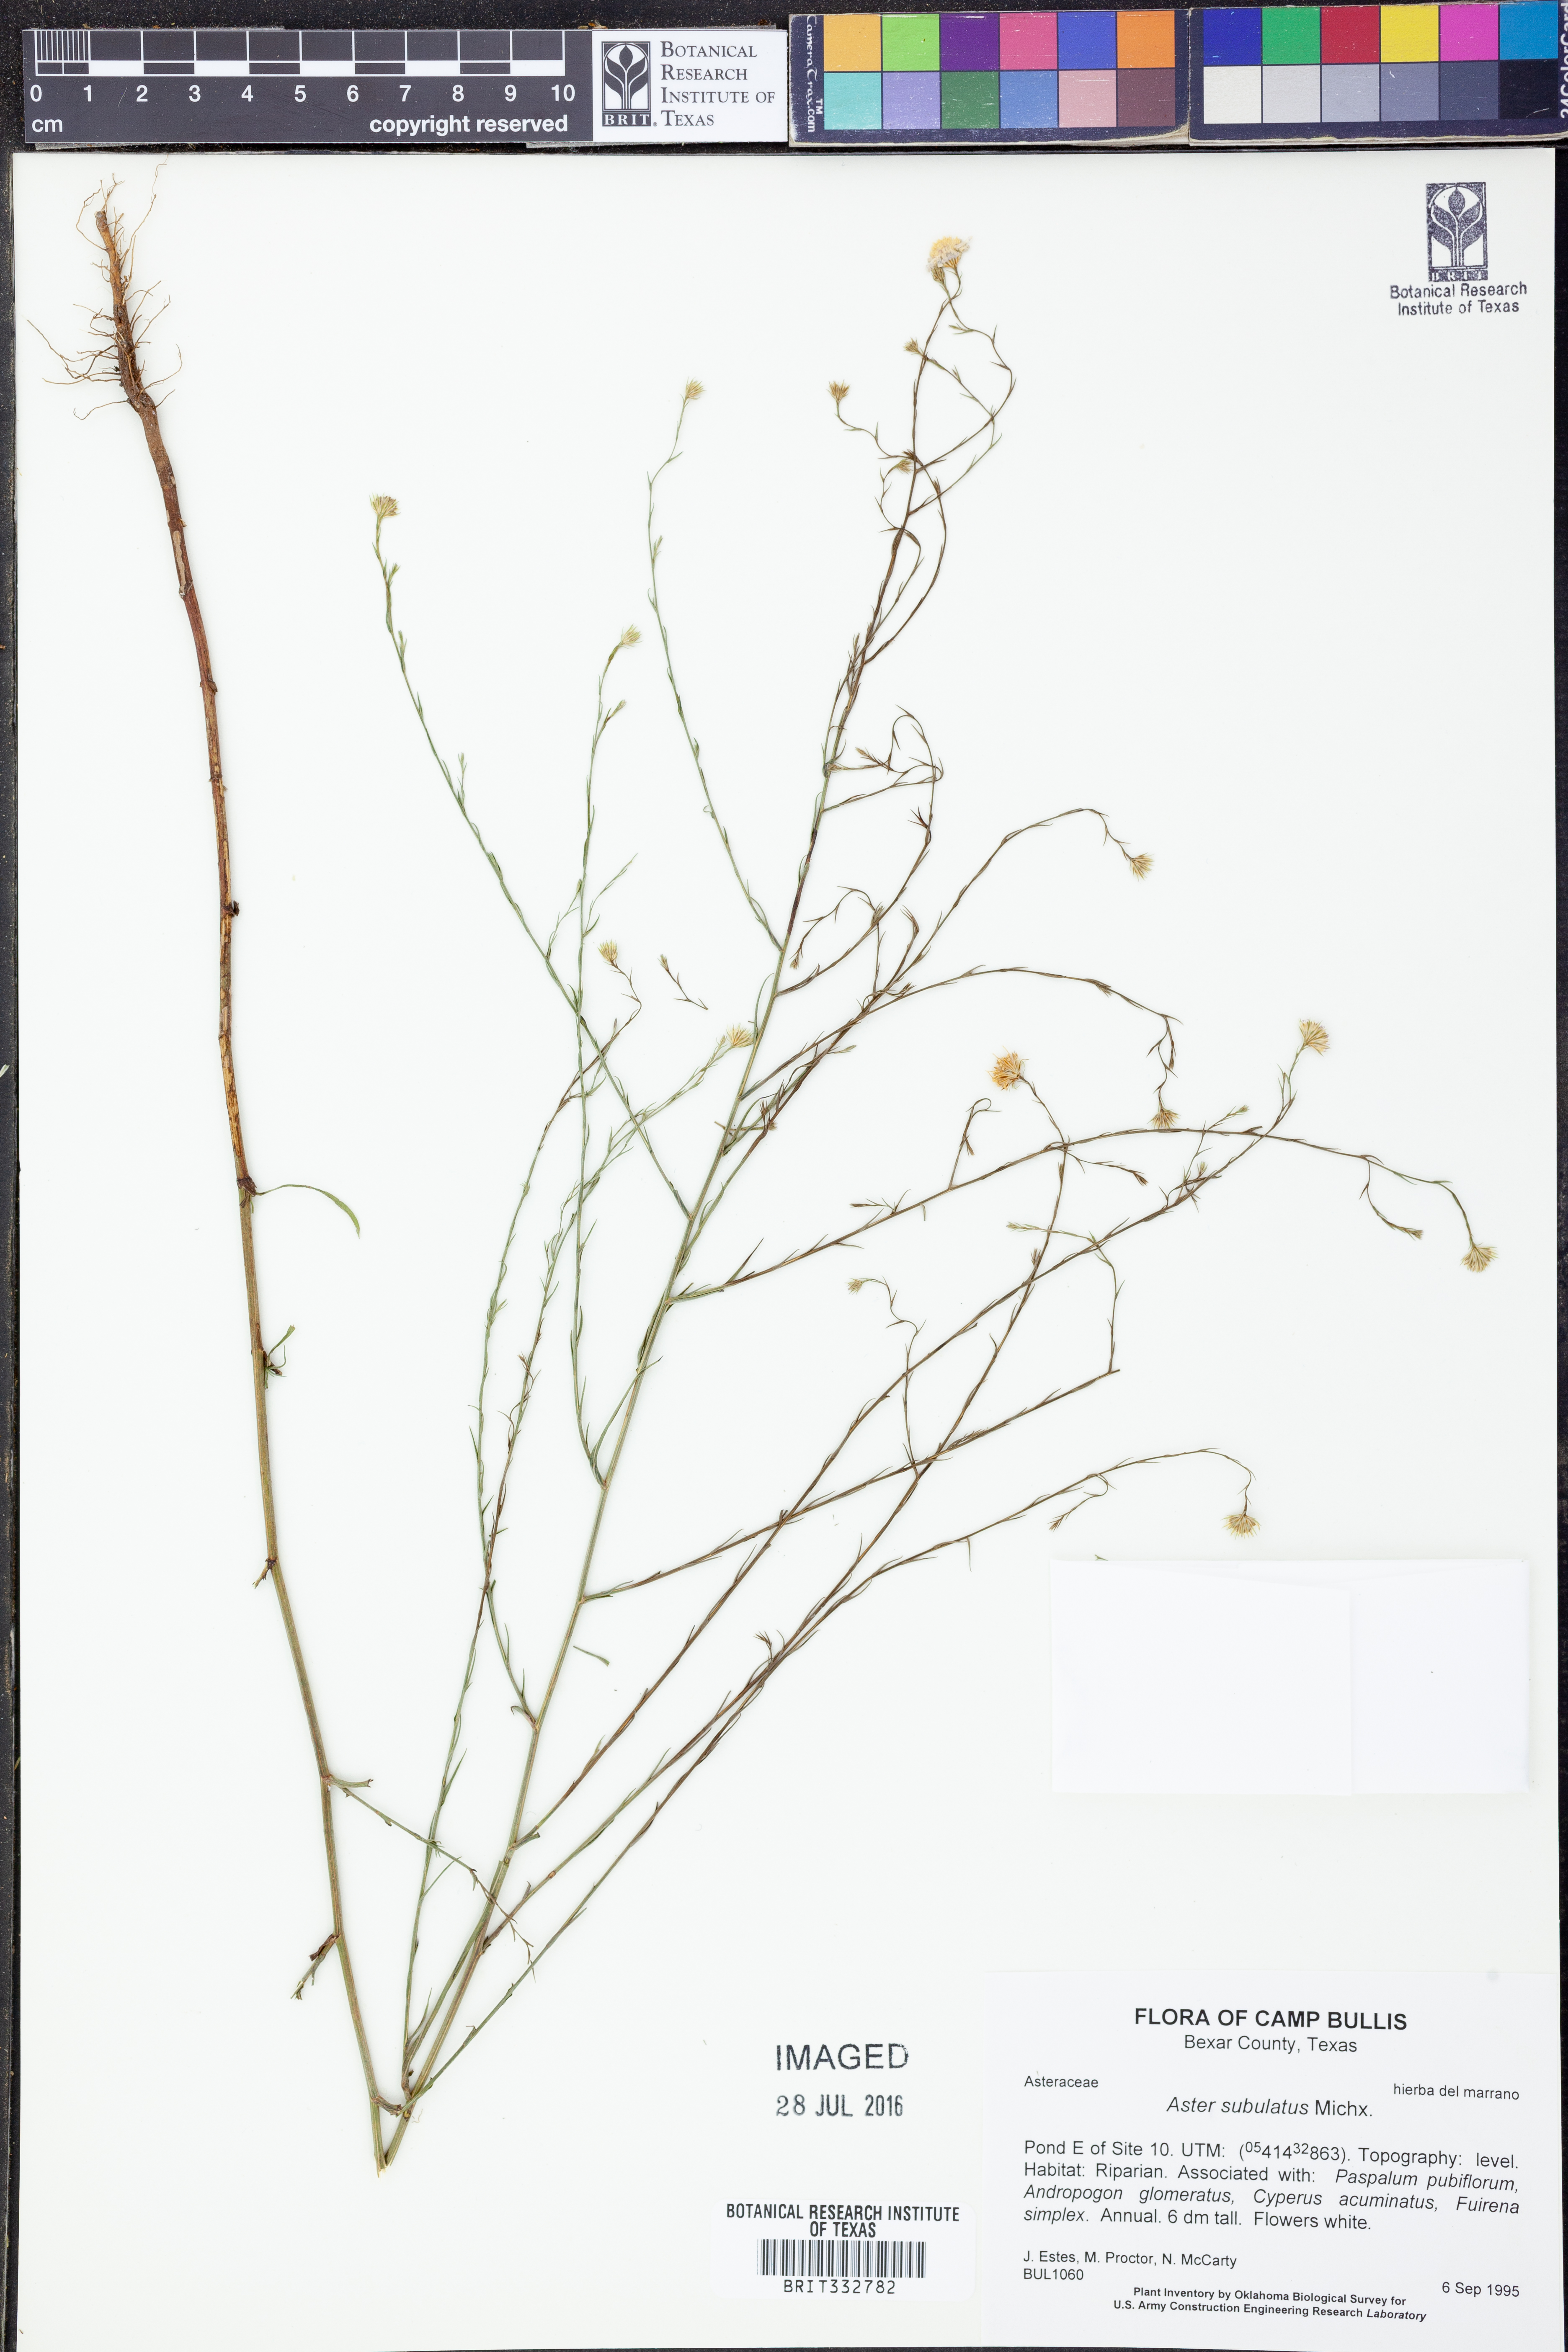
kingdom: Plantae
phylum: Tracheophyta
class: Magnoliopsida
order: Asterales
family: Asteraceae
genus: Symphyotrichum
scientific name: Symphyotrichum subulatum
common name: Annual saltmarsh aster
